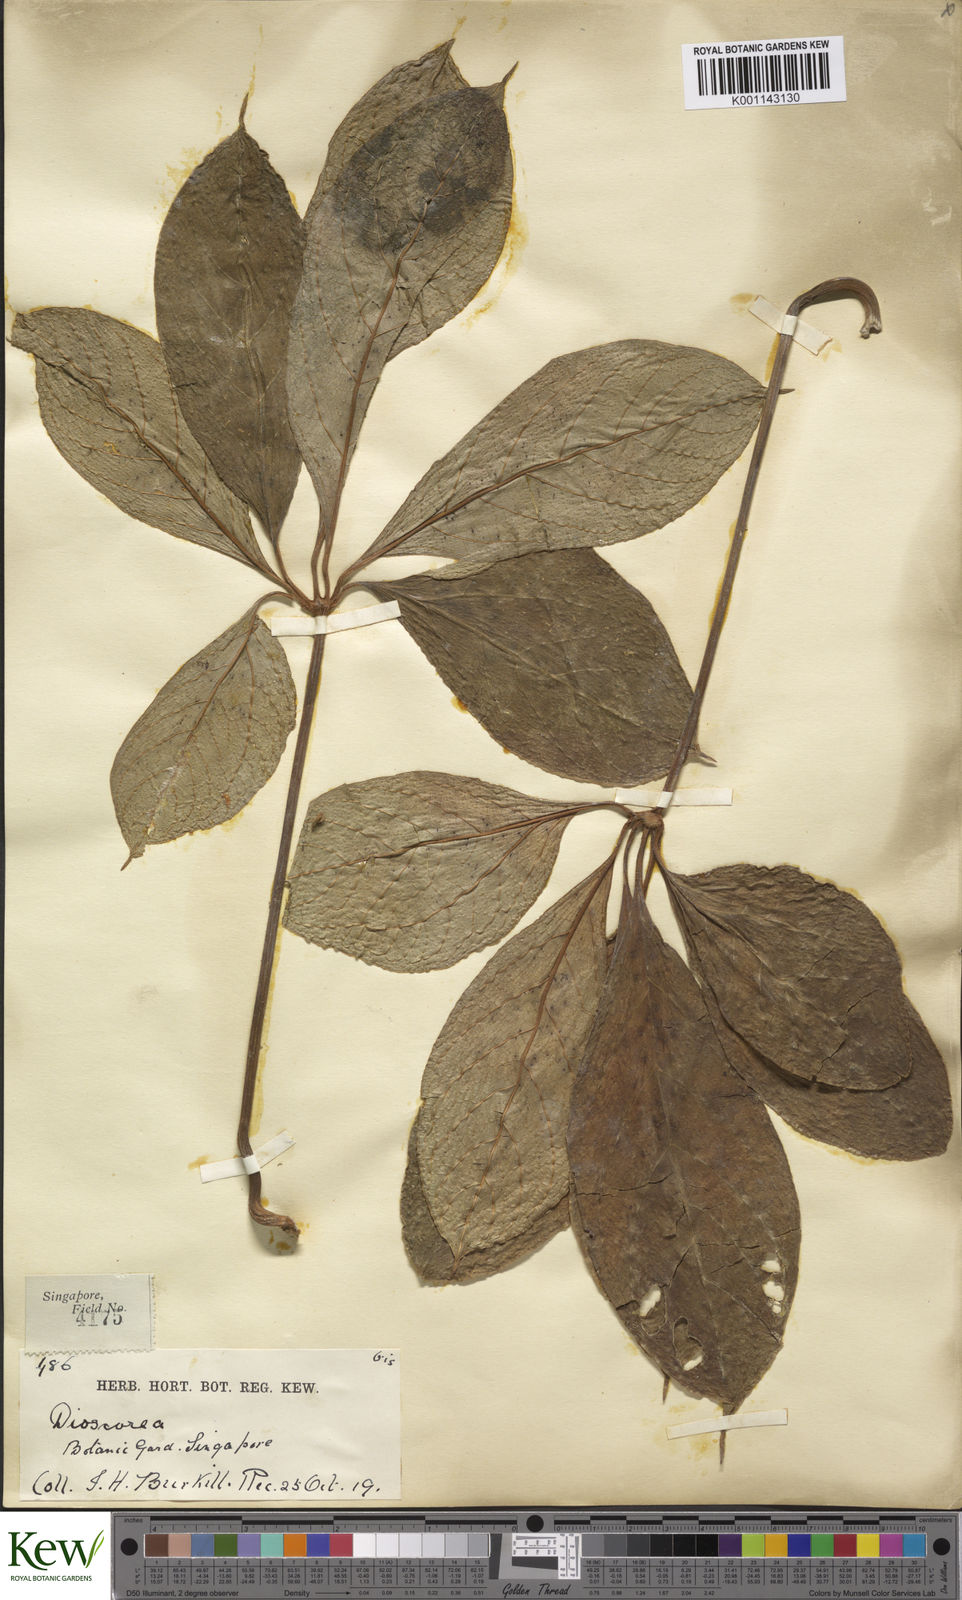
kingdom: Plantae
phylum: Tracheophyta
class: Liliopsida
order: Dioscoreales
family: Dioscoreaceae
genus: Dioscorea
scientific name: Dioscorea pentaphylla
